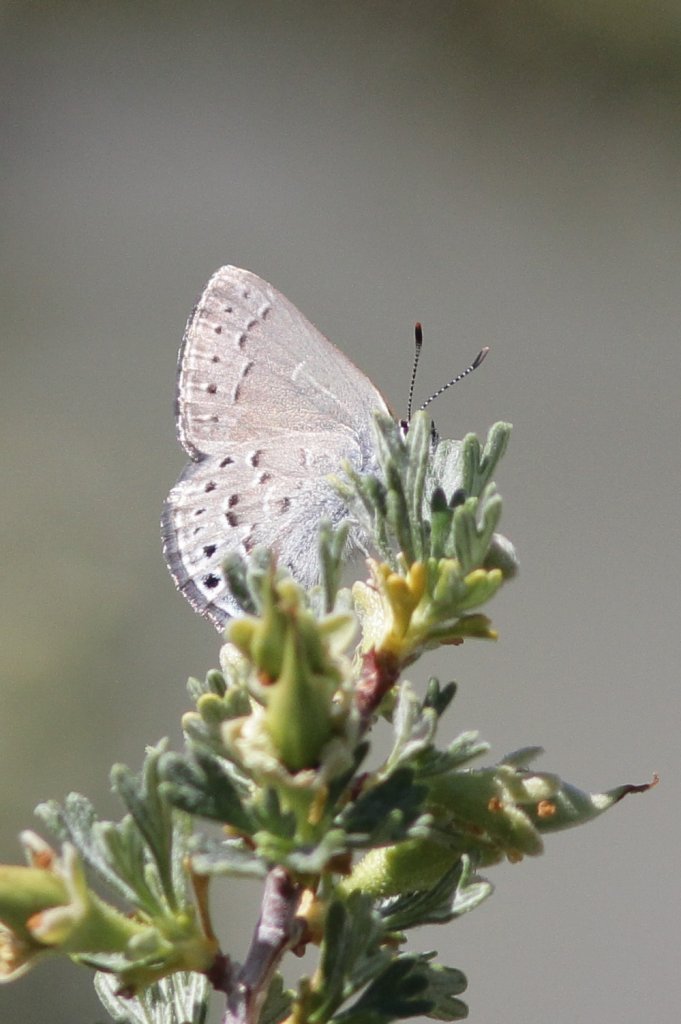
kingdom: Animalia
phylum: Arthropoda
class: Insecta
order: Lepidoptera
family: Lycaenidae
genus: Satyrium
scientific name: Satyrium behrii
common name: Behr's Hairstreak
